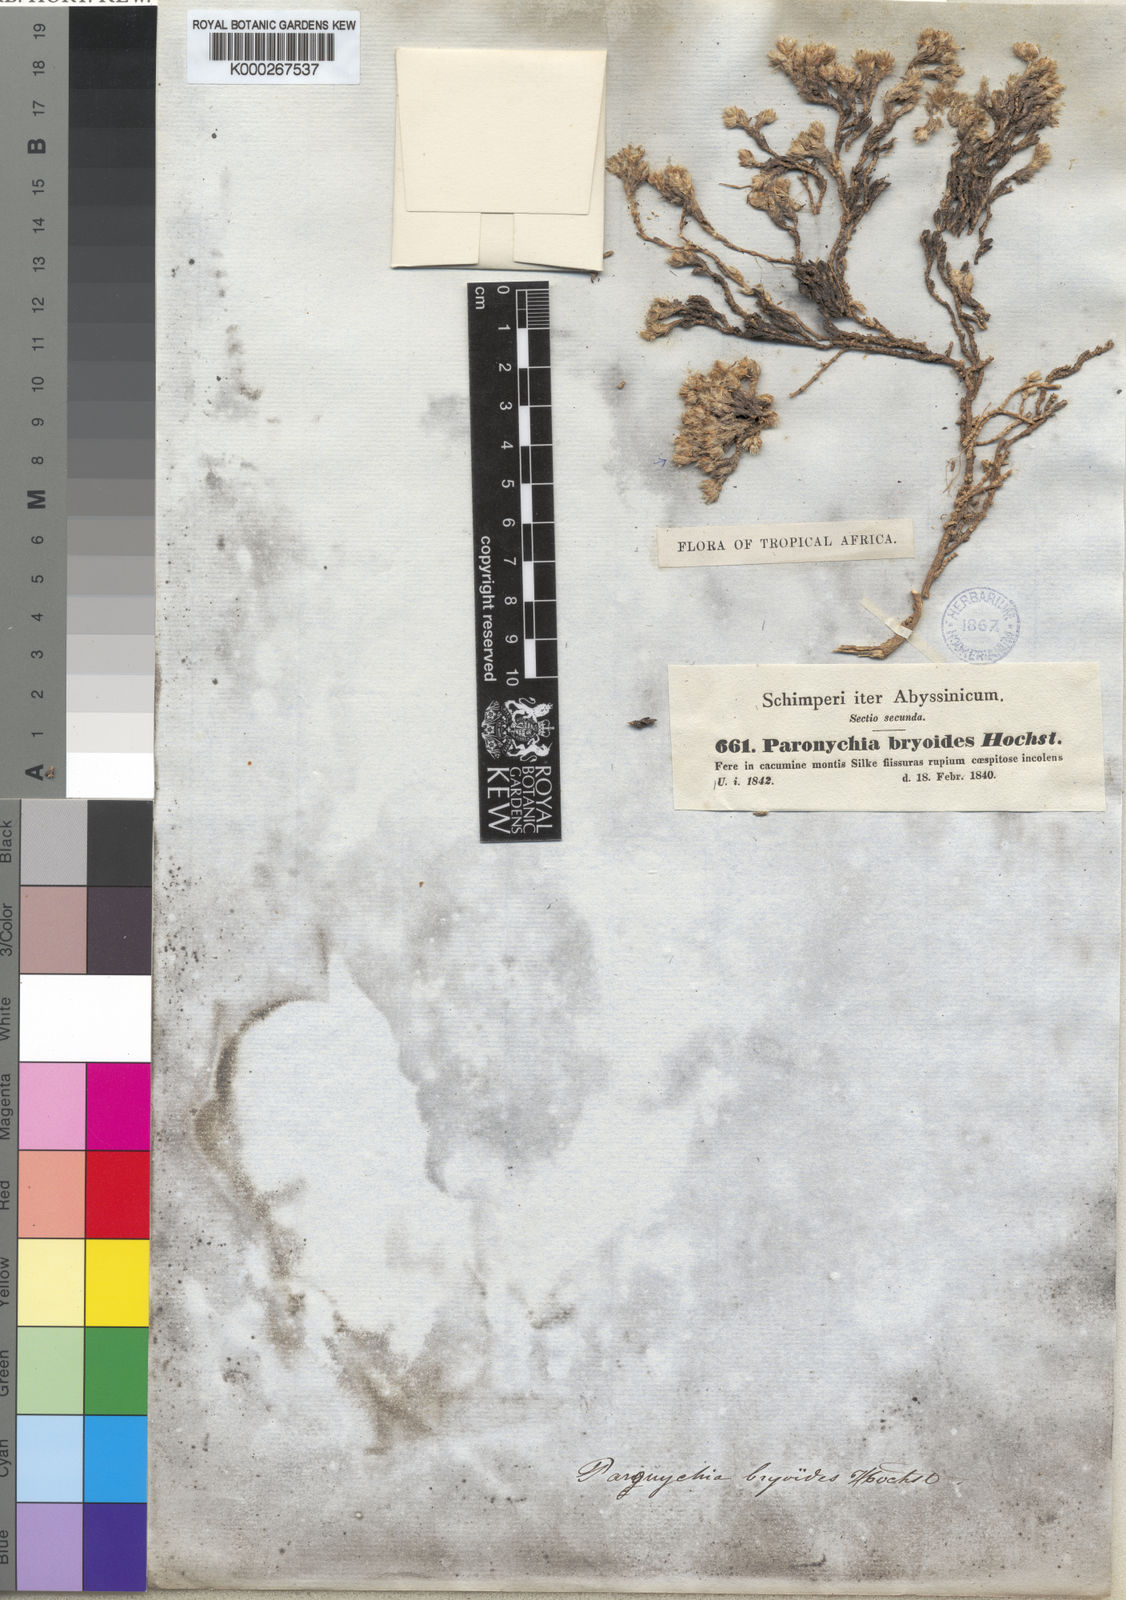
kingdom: Plantae
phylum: Tracheophyta
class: Magnoliopsida
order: Caryophyllales
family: Caryophyllaceae
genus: Paronychia
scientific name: Paronychia bryoides
